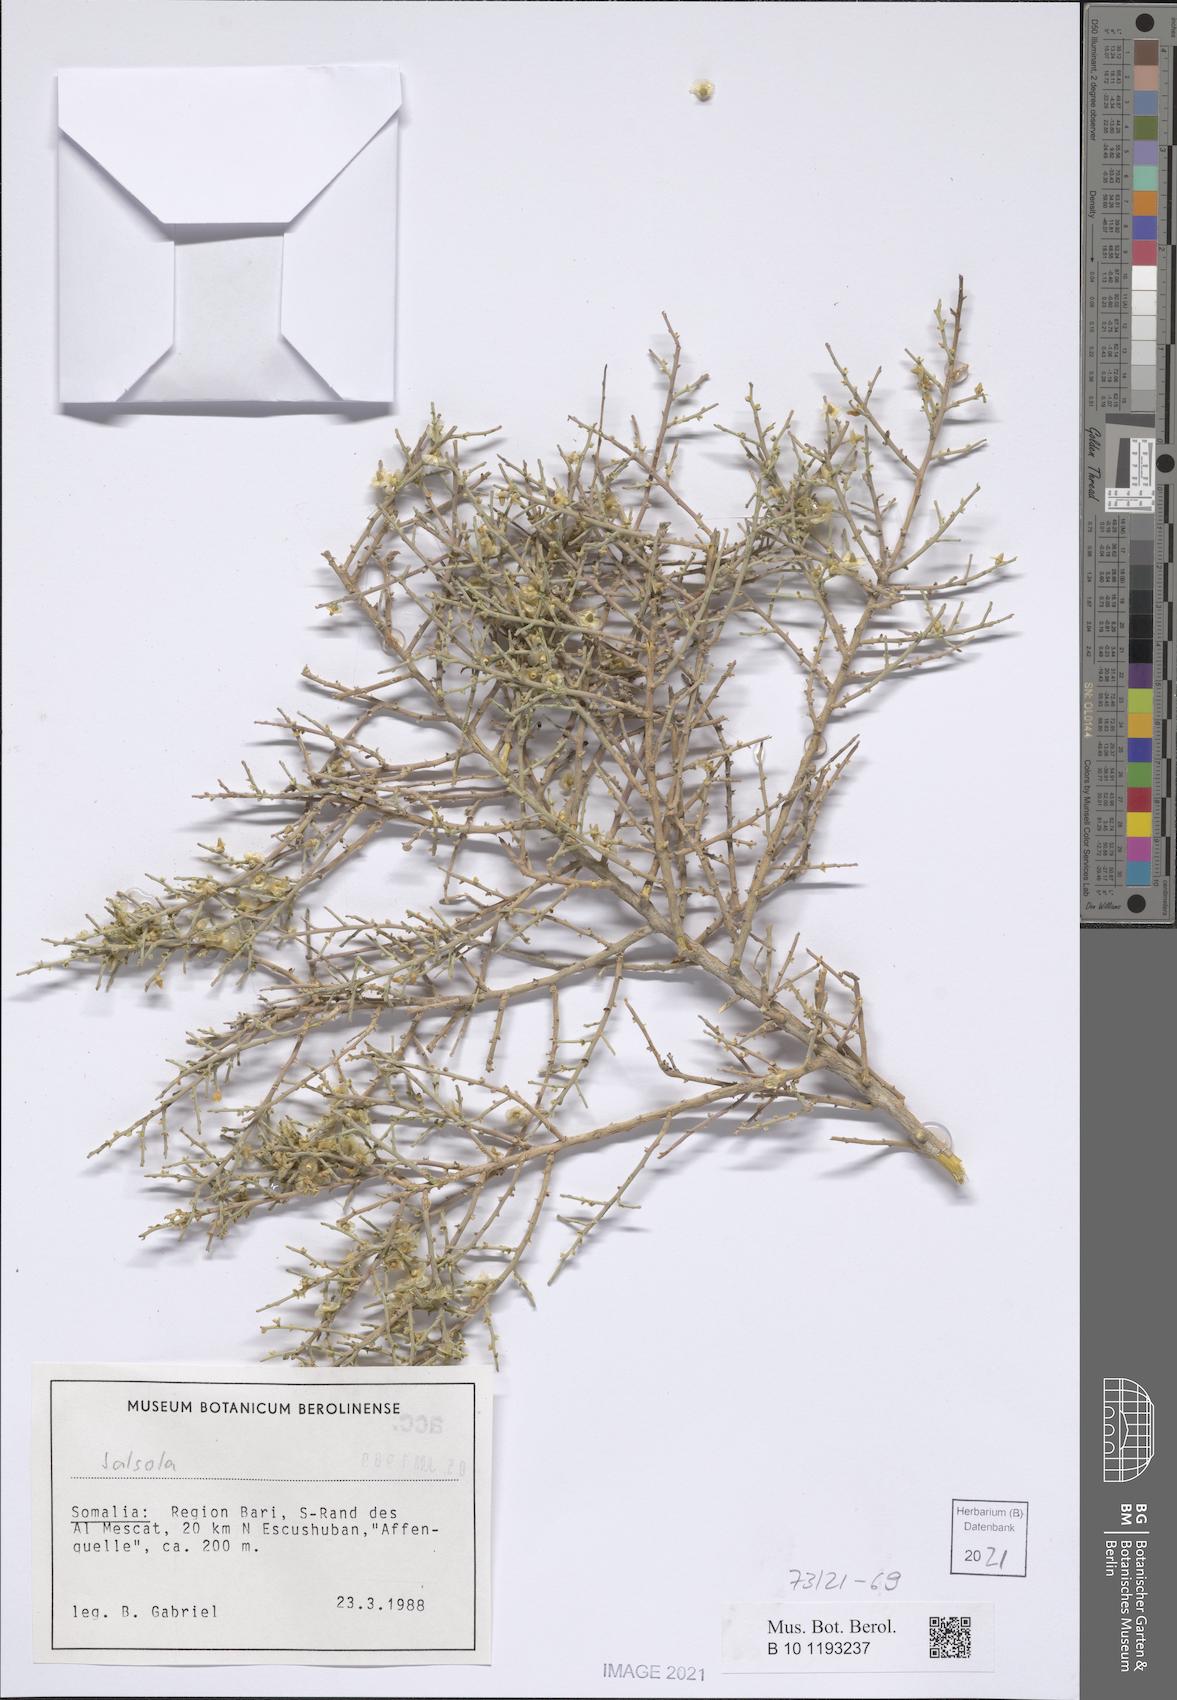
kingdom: Plantae
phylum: Tracheophyta
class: Magnoliopsida
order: Caryophyllales
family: Amaranthaceae
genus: Salsola
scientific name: Salsola
